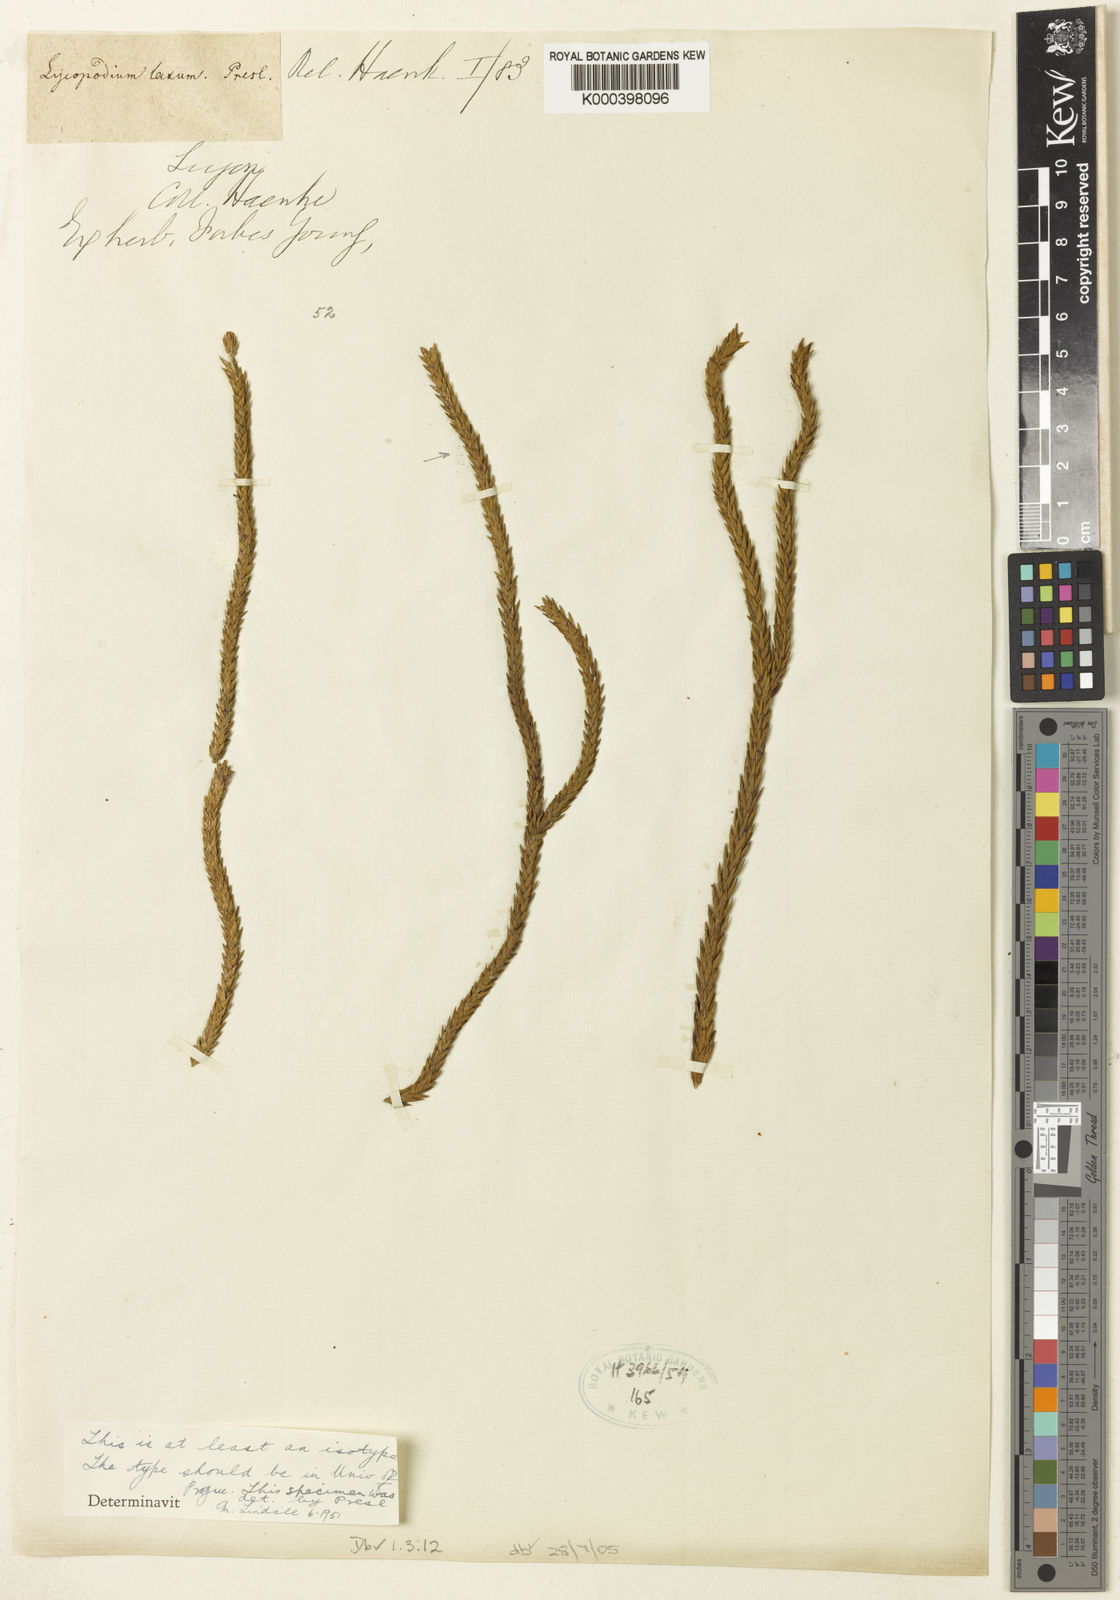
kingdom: Plantae
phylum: Tracheophyta
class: Lycopodiopsida
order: Lycopodiales
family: Lycopodiaceae
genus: Phlegmariurus
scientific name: Phlegmariurus carinatus
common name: Keeled tassel-fern
